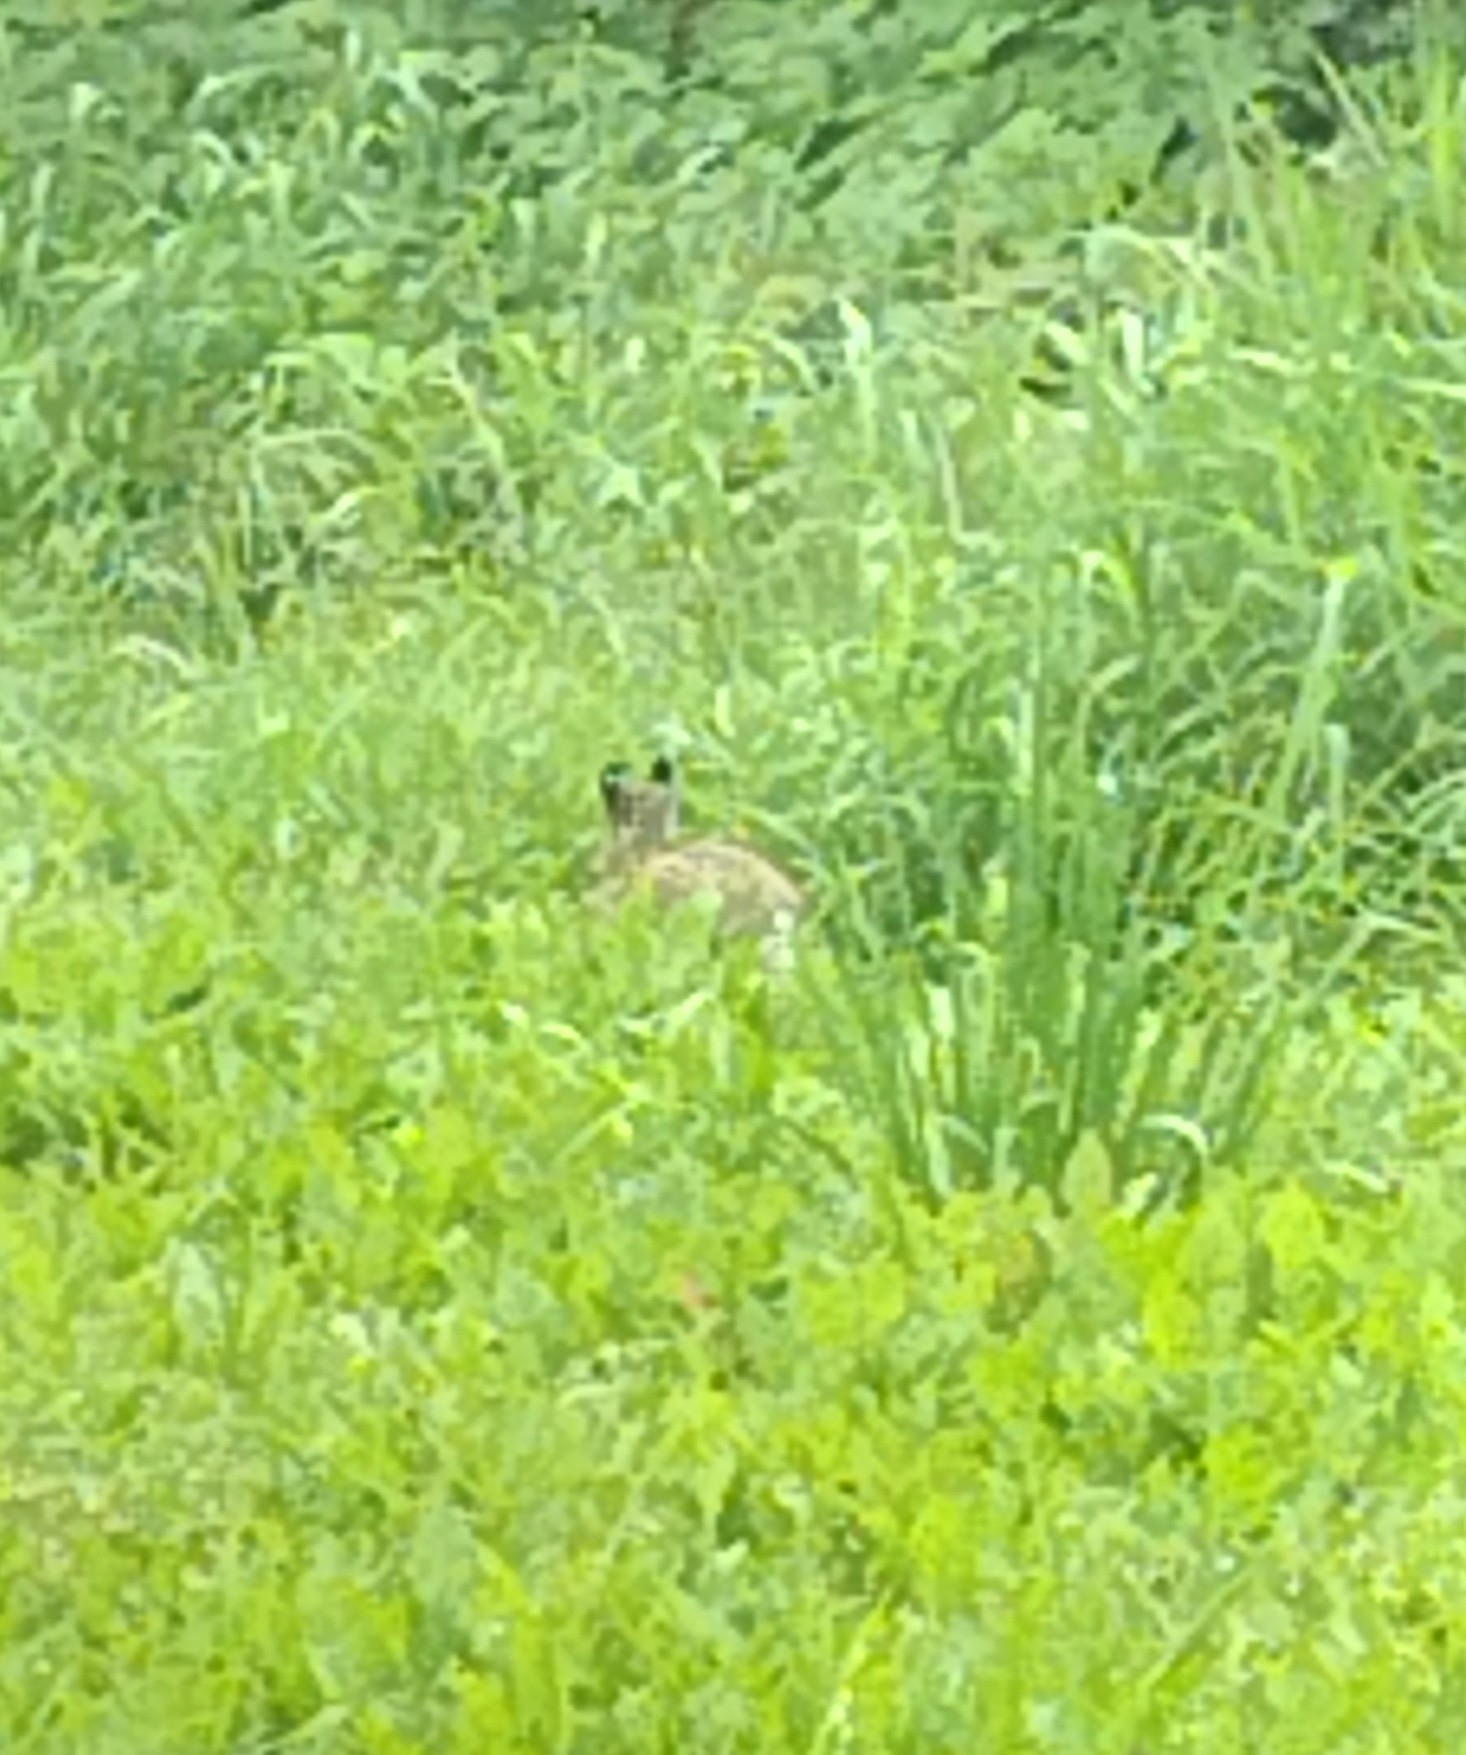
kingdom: Animalia
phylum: Chordata
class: Mammalia
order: Lagomorpha
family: Leporidae
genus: Lepus
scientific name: Lepus europaeus
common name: Hare
